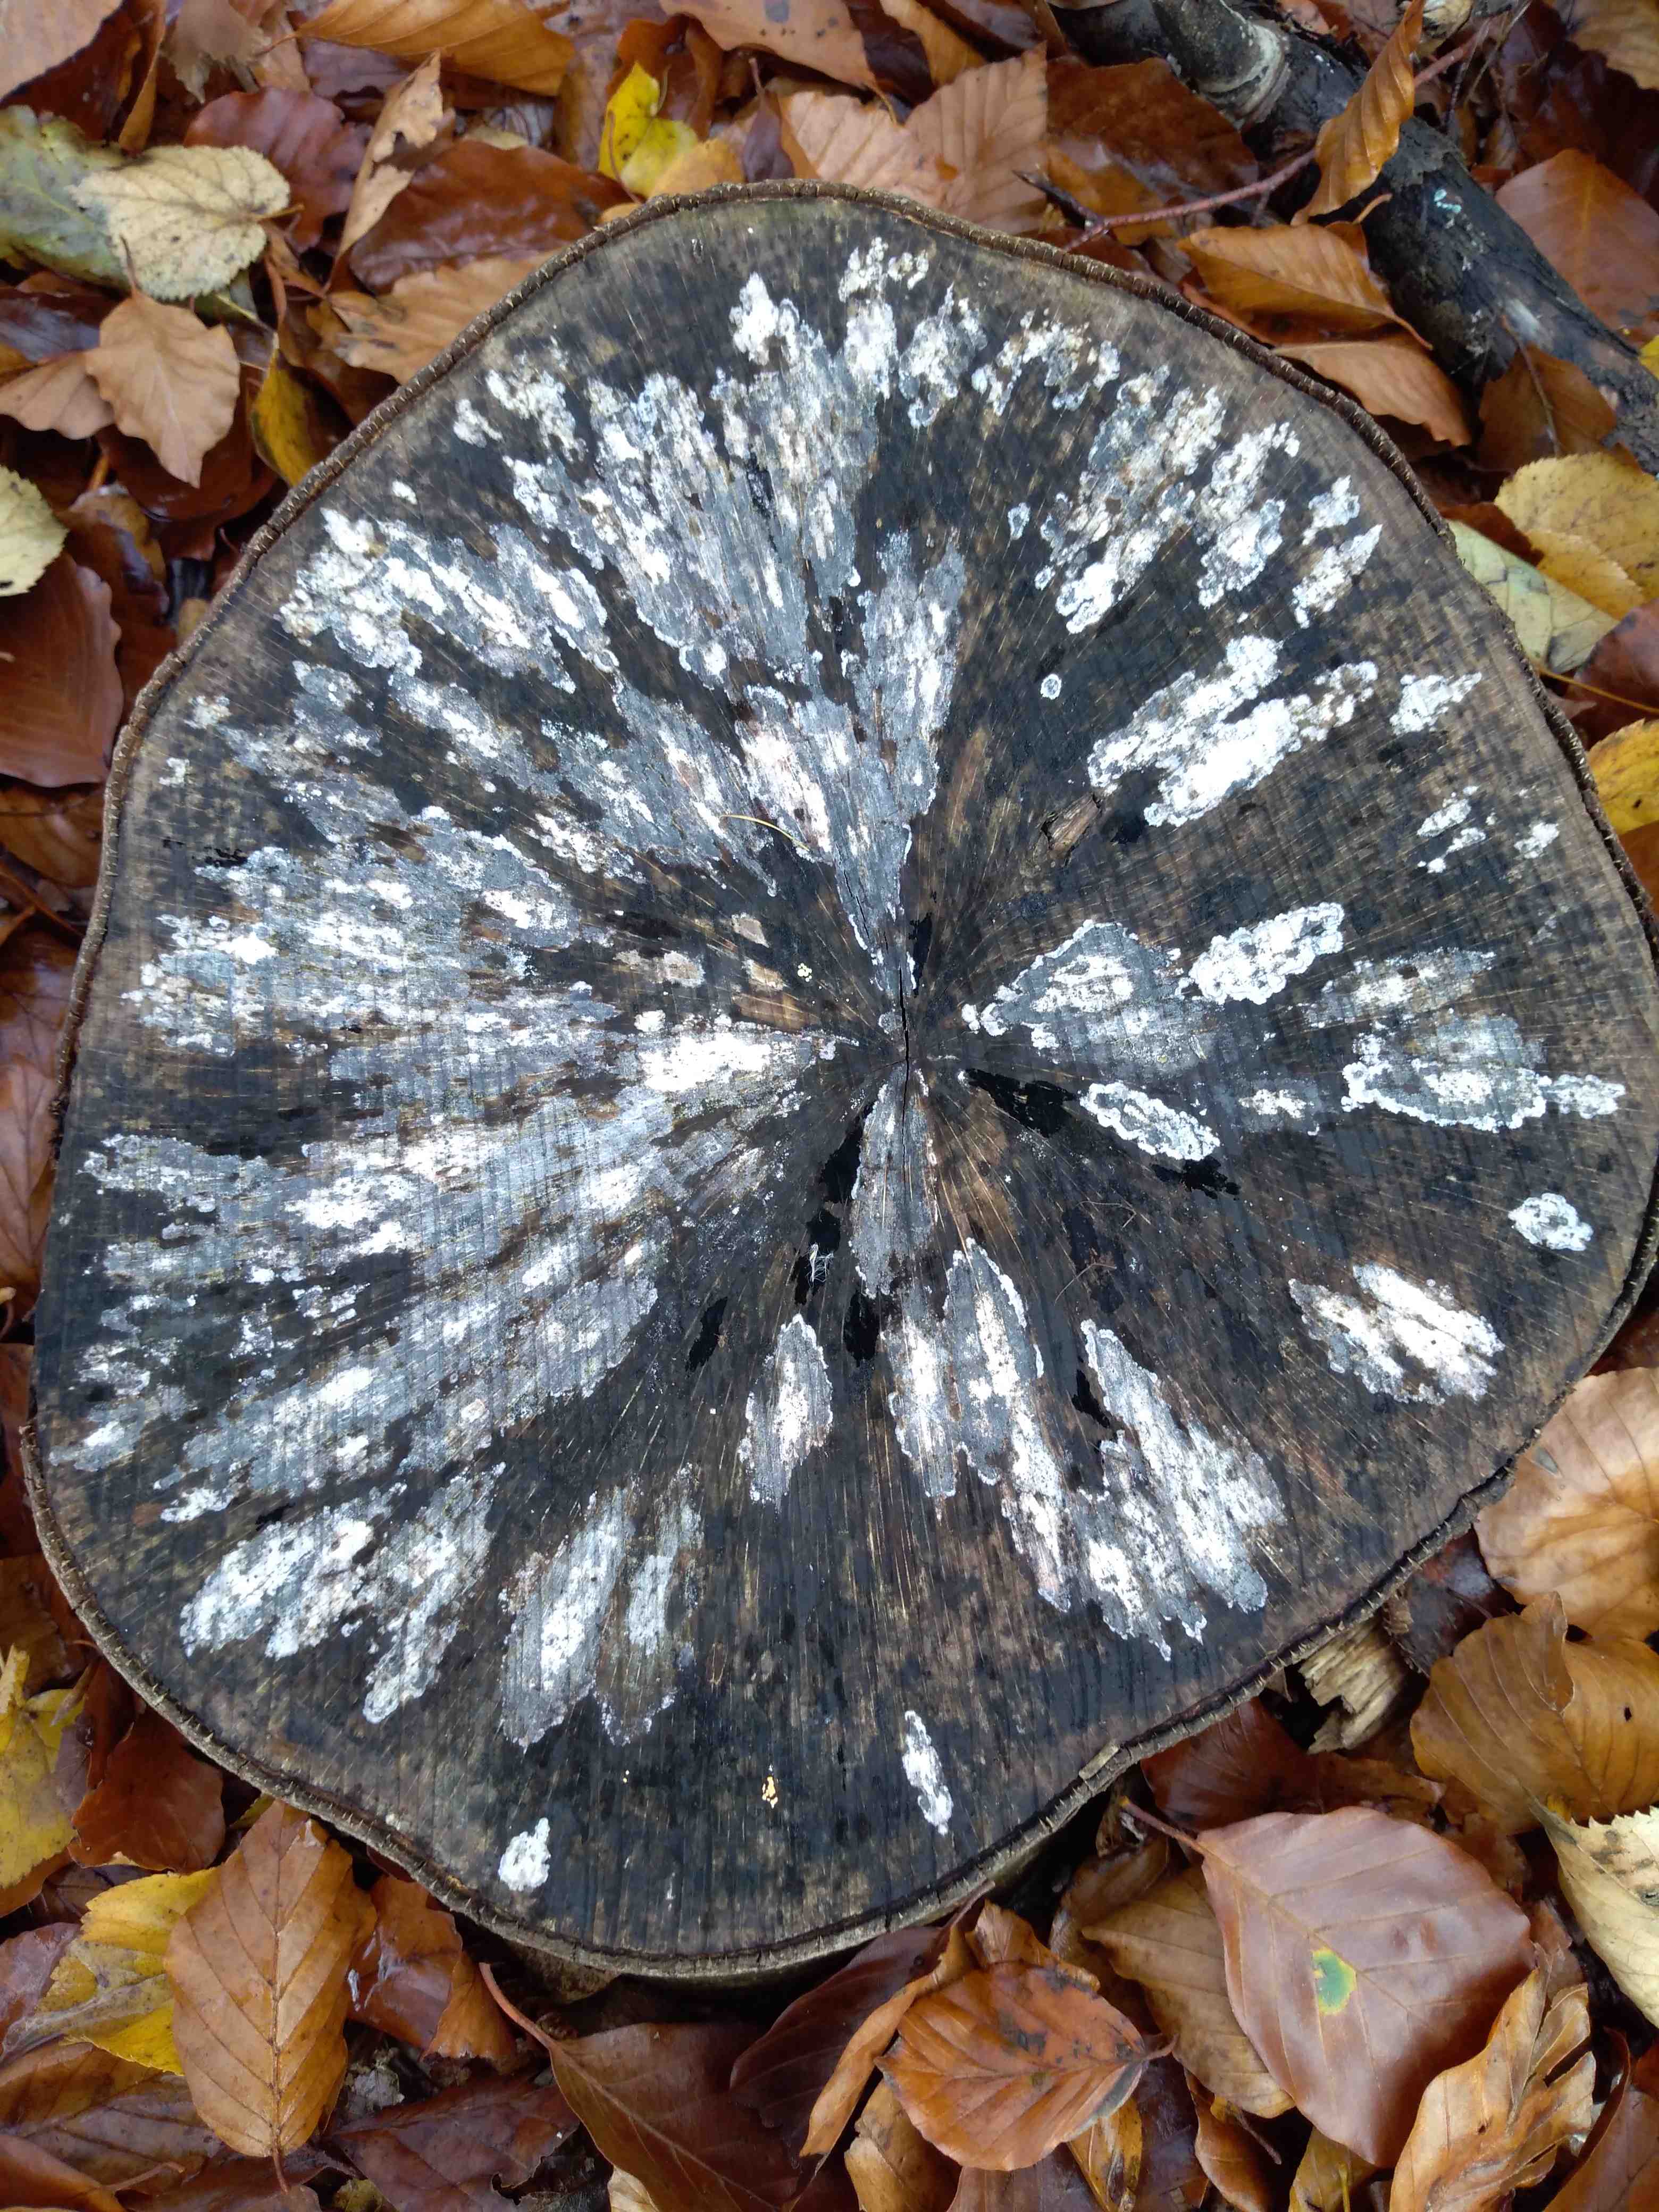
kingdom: Fungi
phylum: Ascomycota
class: Leotiomycetes
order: Helotiales
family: Helotiaceae
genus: Bispora
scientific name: Bispora pallescens
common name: måtte-snitskive
